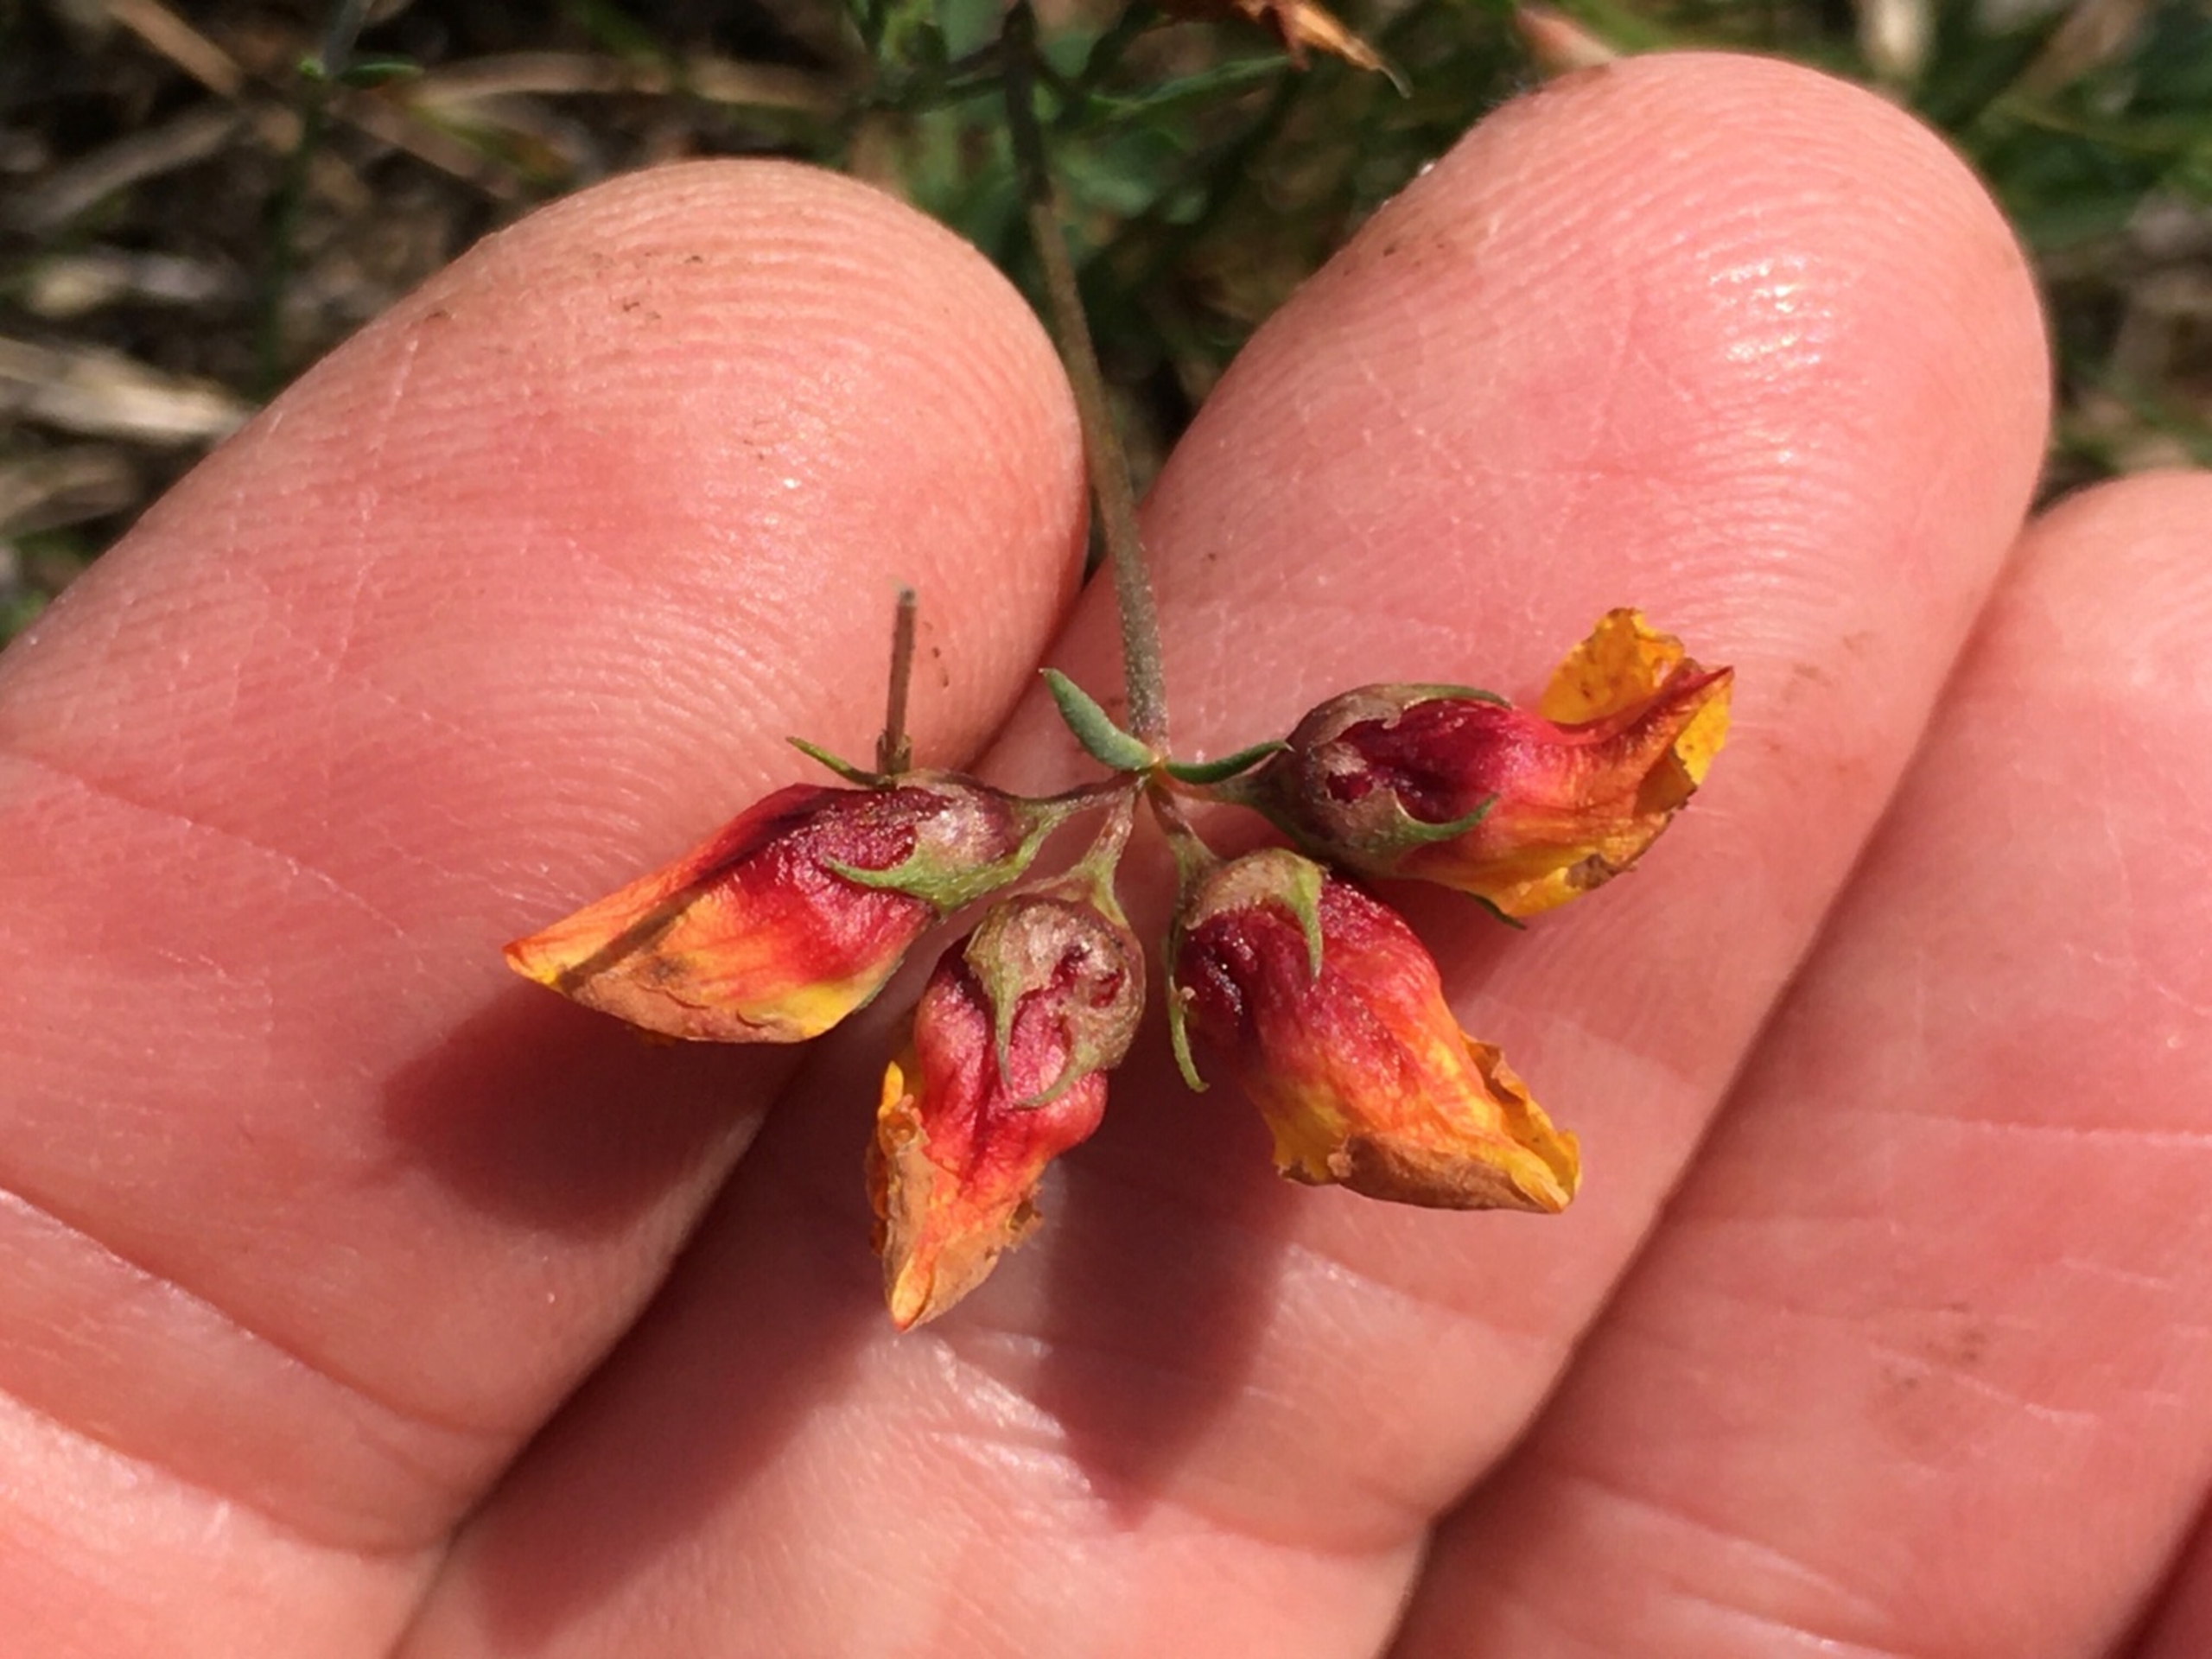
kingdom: Animalia
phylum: Arthropoda
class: Insecta
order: Diptera
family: Cecidomyiidae
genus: Contarinia
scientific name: Contarinia loti
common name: Kællingetandblomstgalmyg
